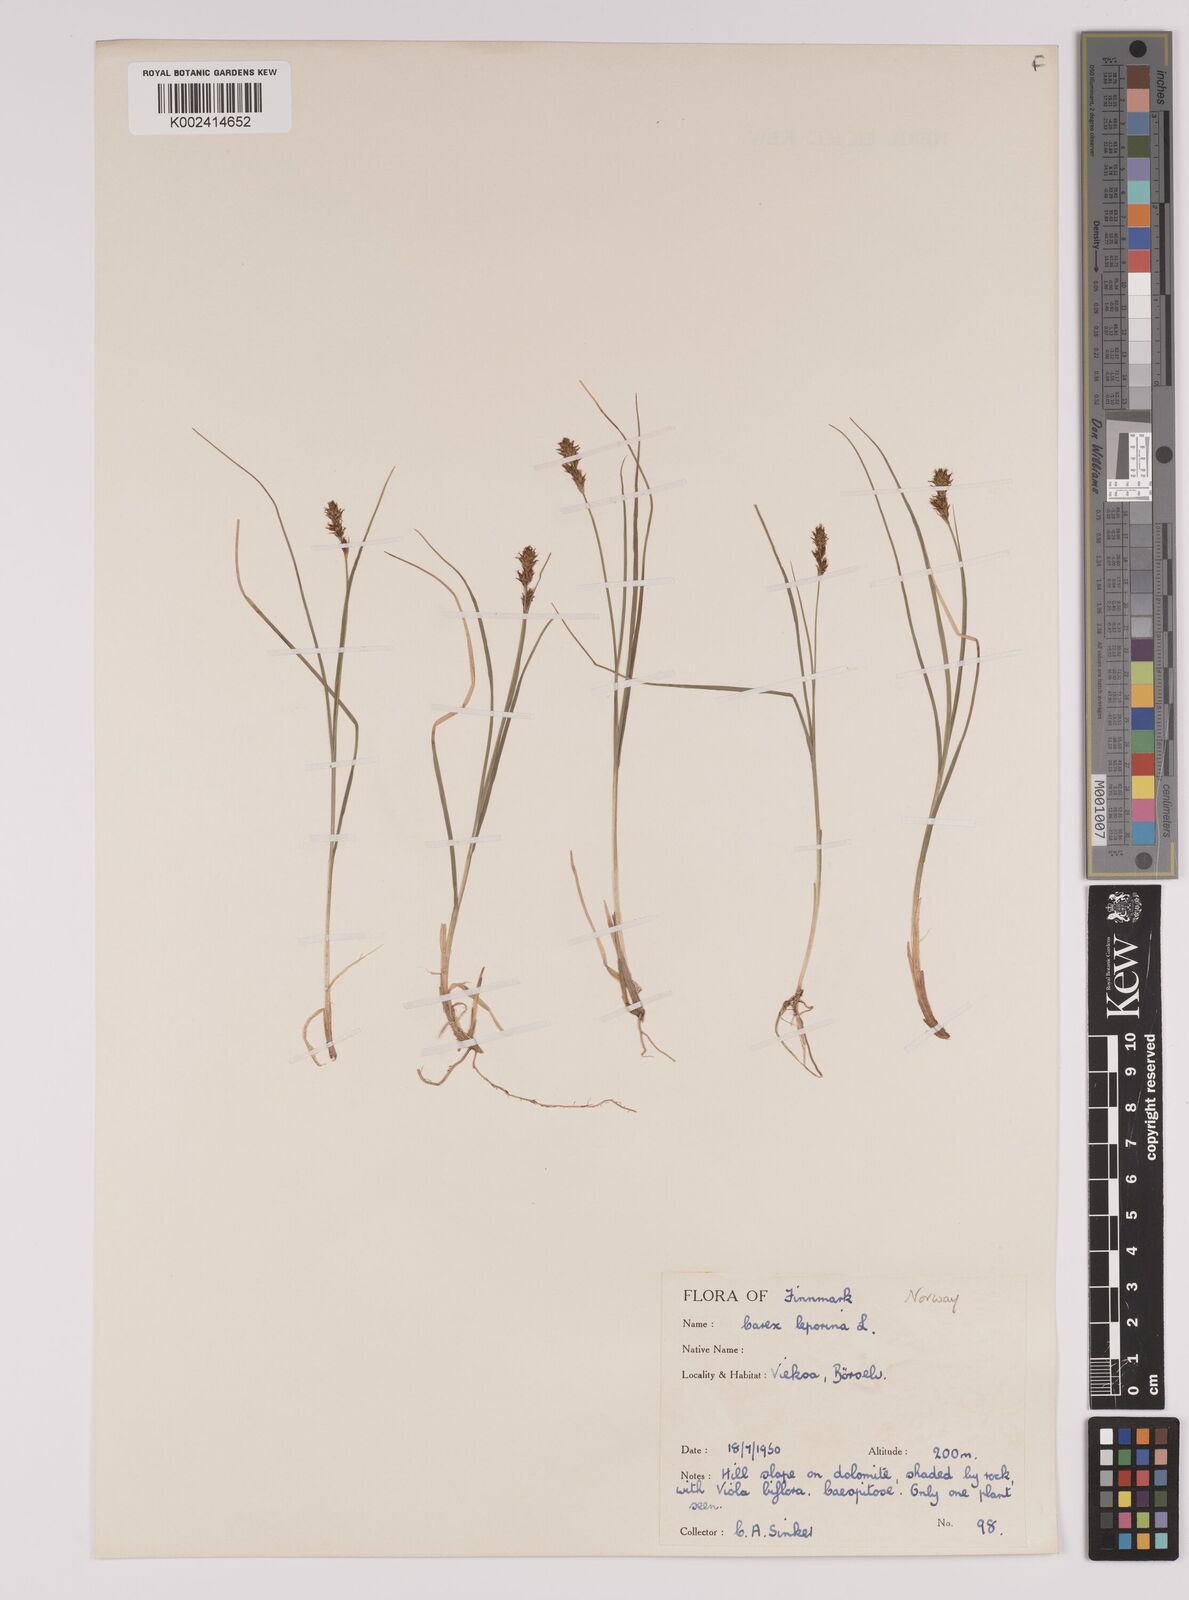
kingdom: Plantae
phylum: Tracheophyta
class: Liliopsida
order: Poales
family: Cyperaceae
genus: Carex
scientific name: Carex parallela
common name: Parallel sedge
